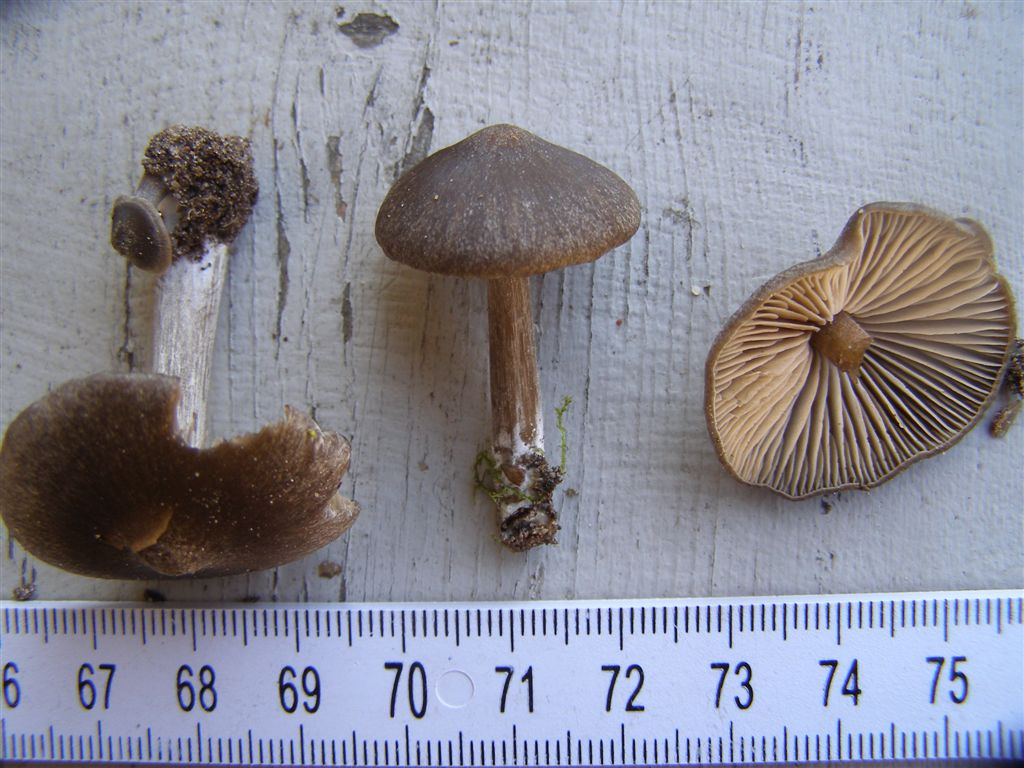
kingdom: Fungi
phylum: Basidiomycota
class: Agaricomycetes
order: Agaricales
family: Entolomataceae
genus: Entoloma
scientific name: Entoloma vernum
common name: vår-rødblad
